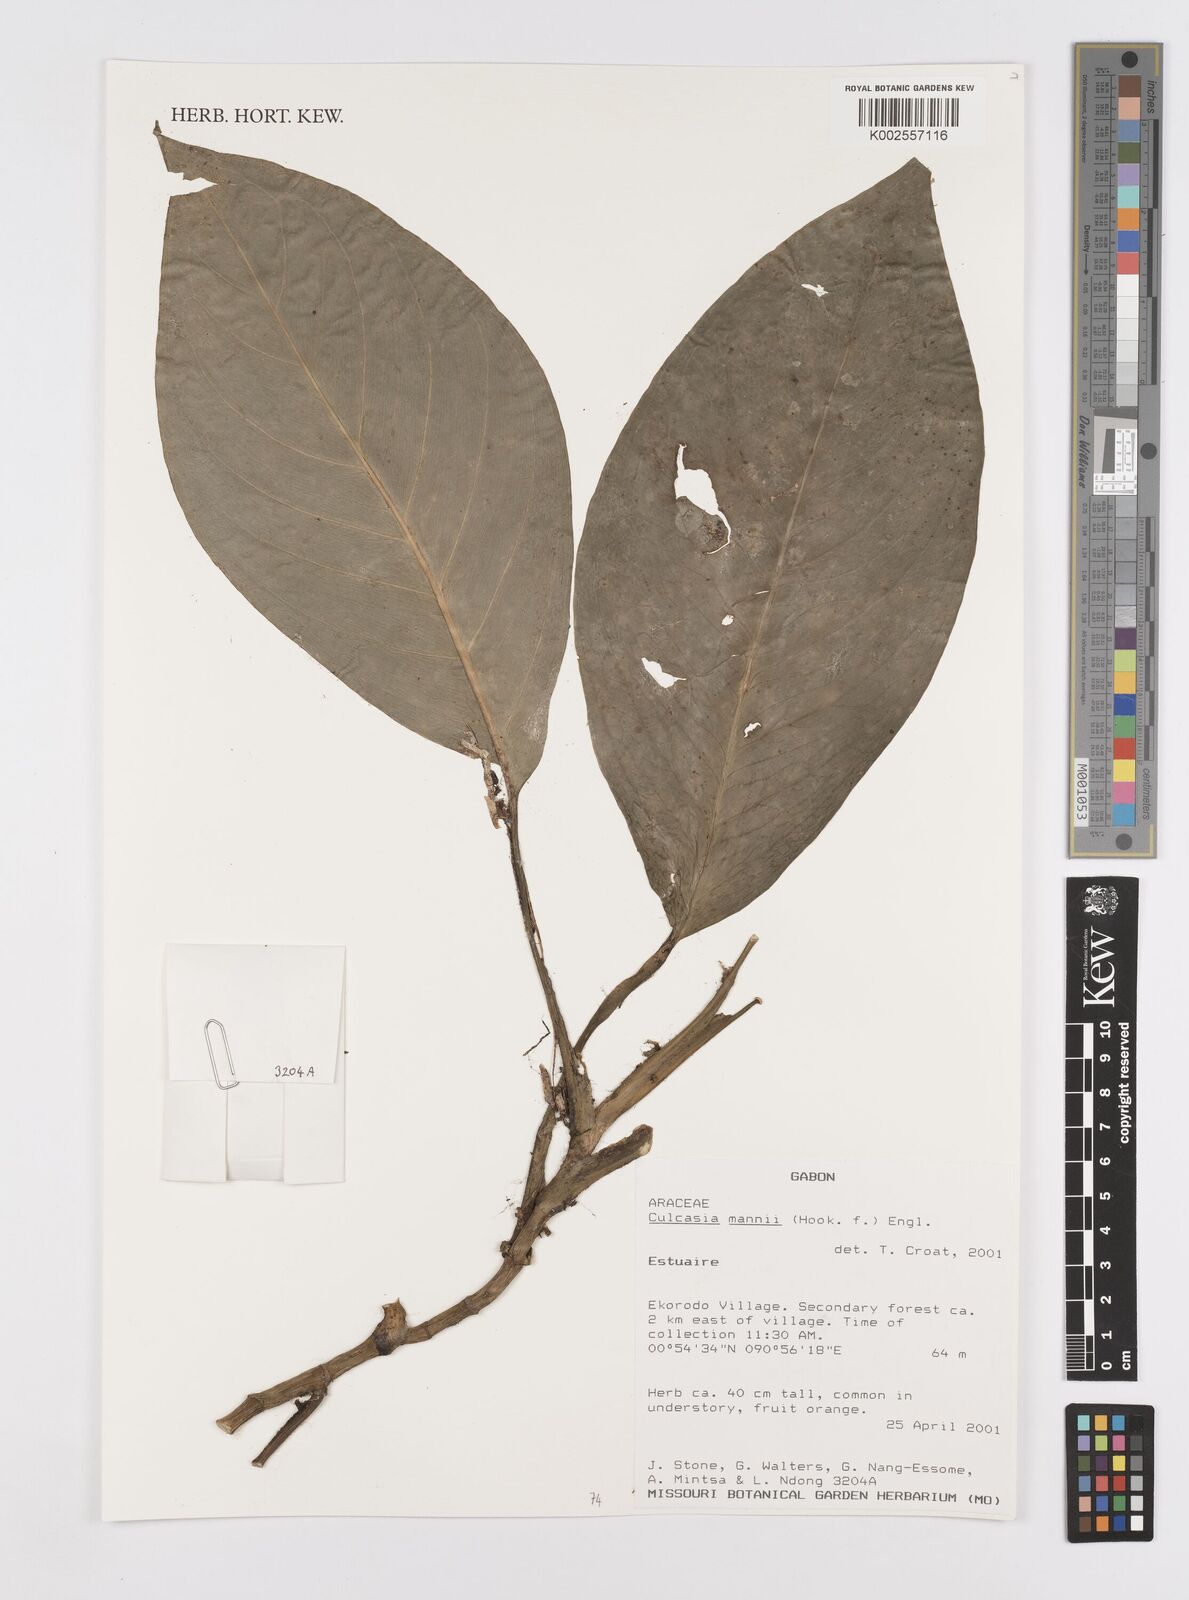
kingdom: Plantae
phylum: Tracheophyta
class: Liliopsida
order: Alismatales
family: Araceae
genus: Culcasia
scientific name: Culcasia panduriformis
